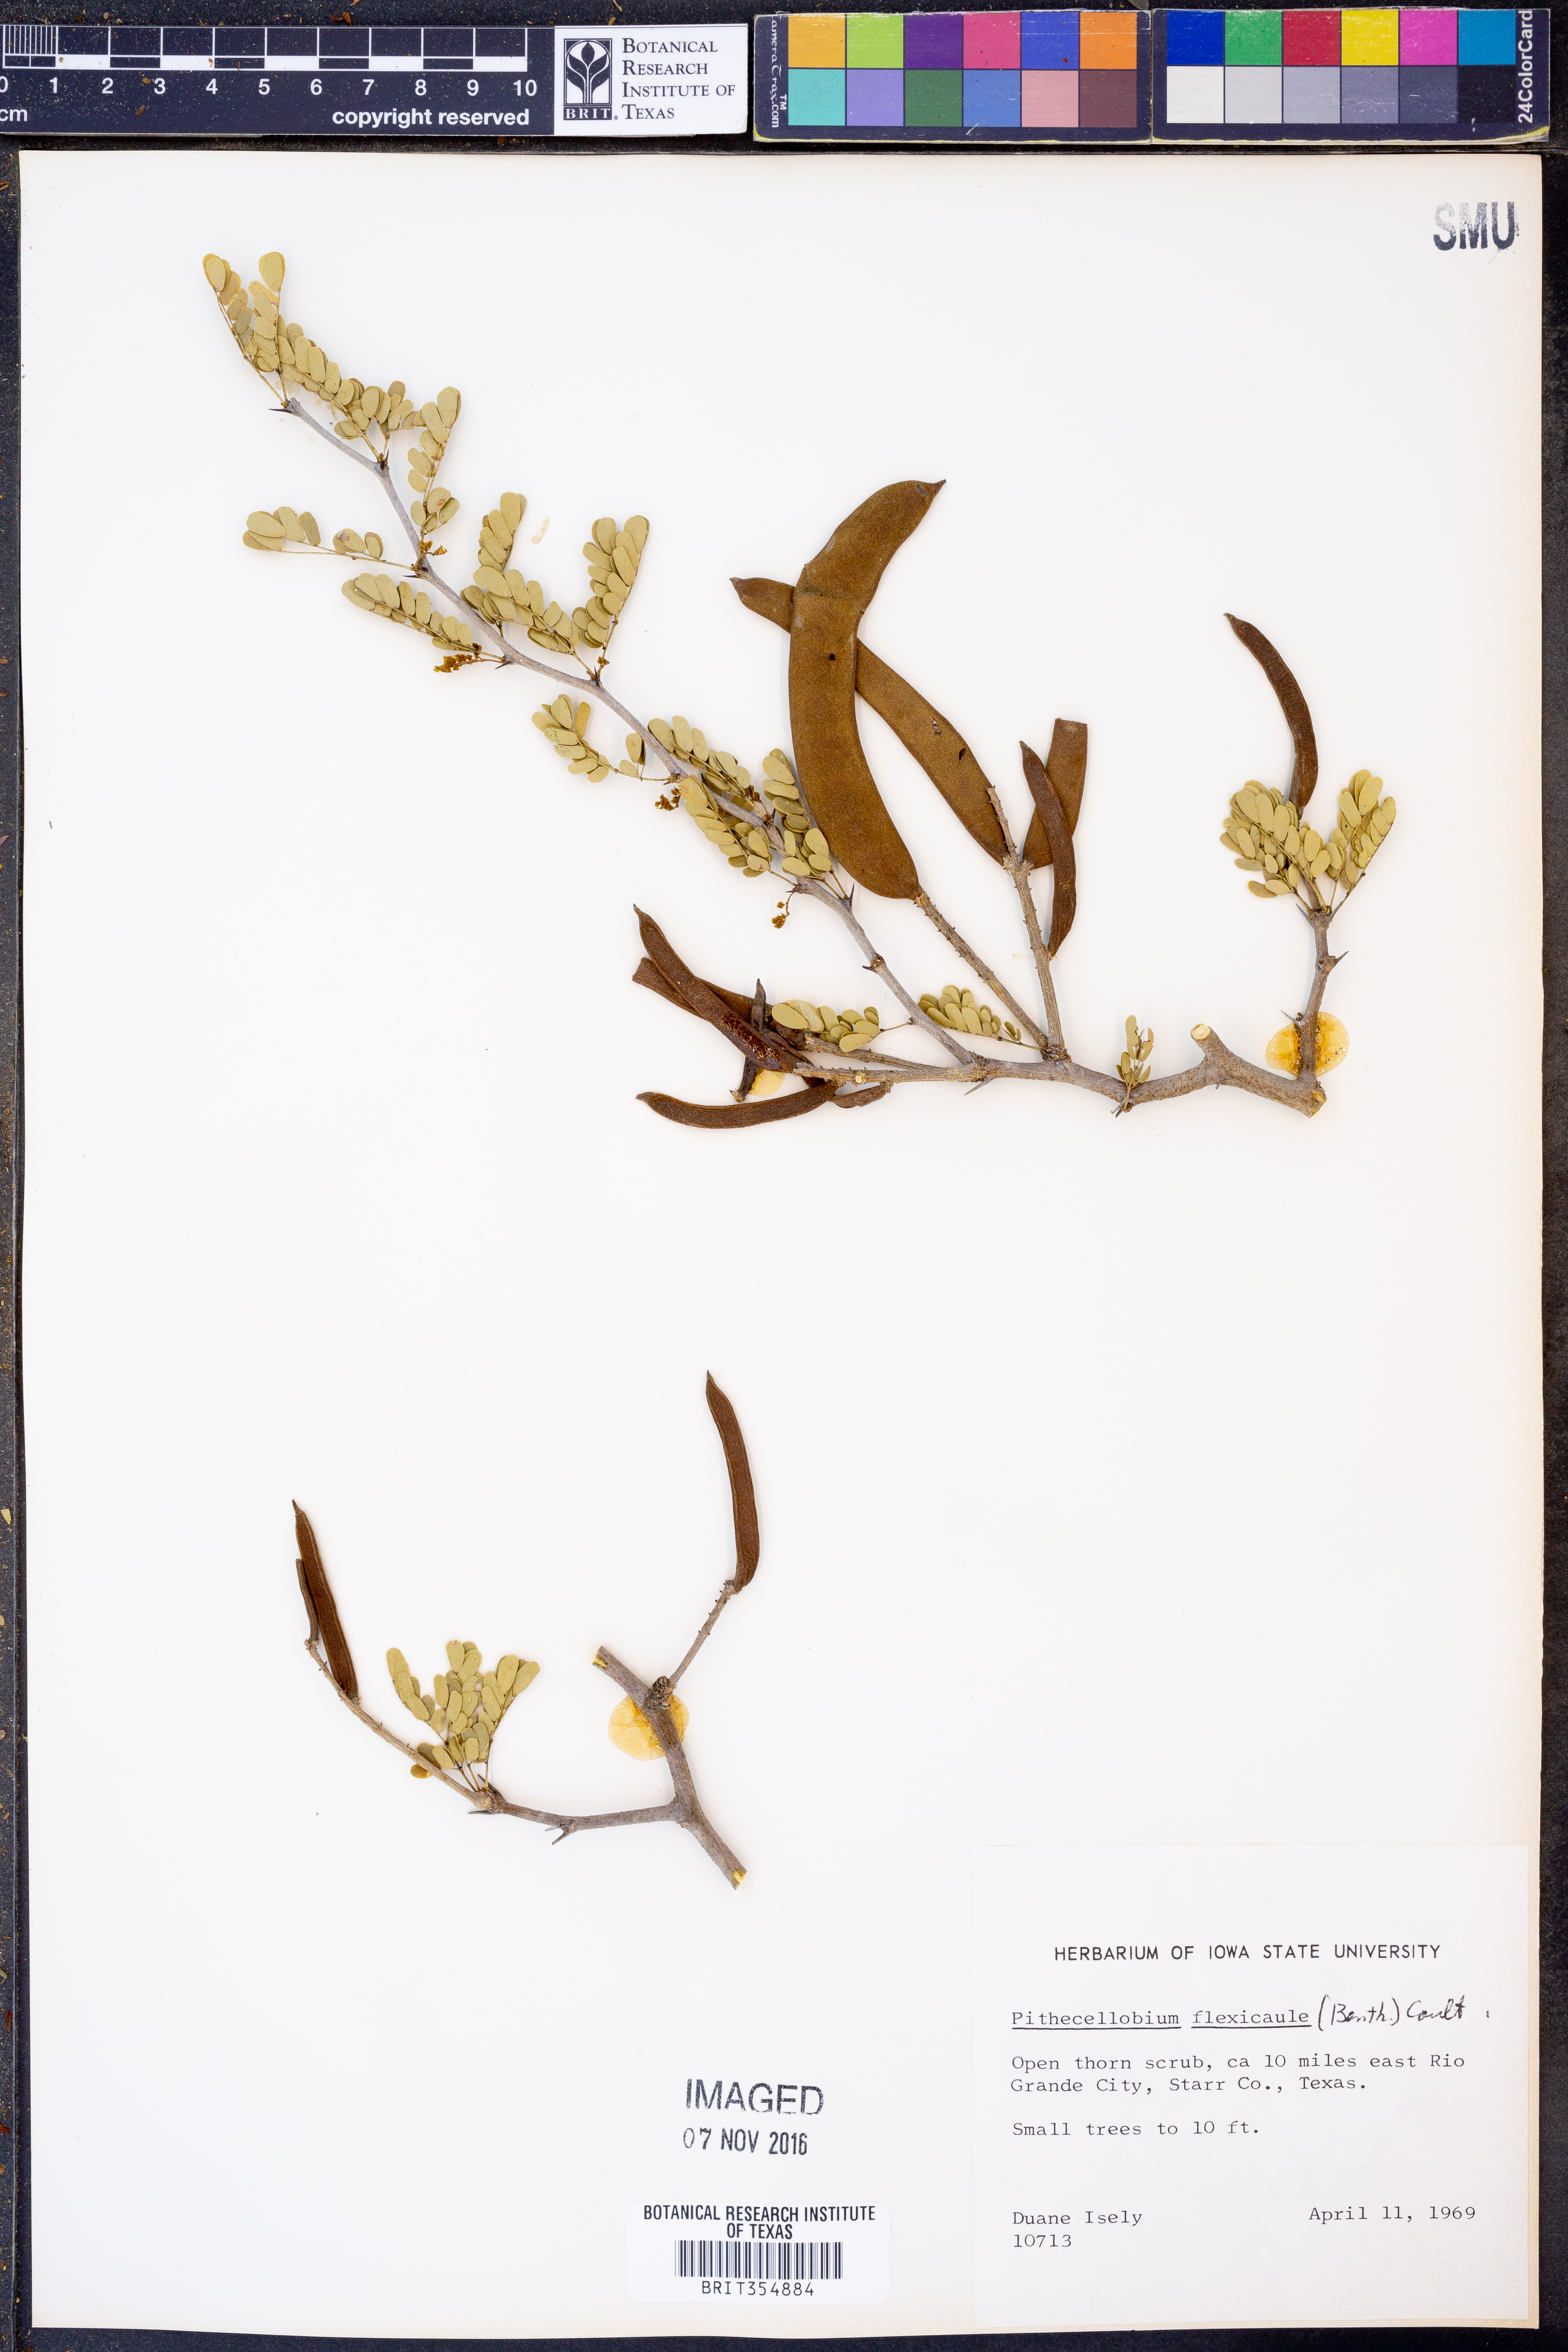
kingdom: Plantae
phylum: Tracheophyta
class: Magnoliopsida
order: Fabales
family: Fabaceae
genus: Ebenopsis
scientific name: Ebenopsis ebano
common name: Ebony blackbead
